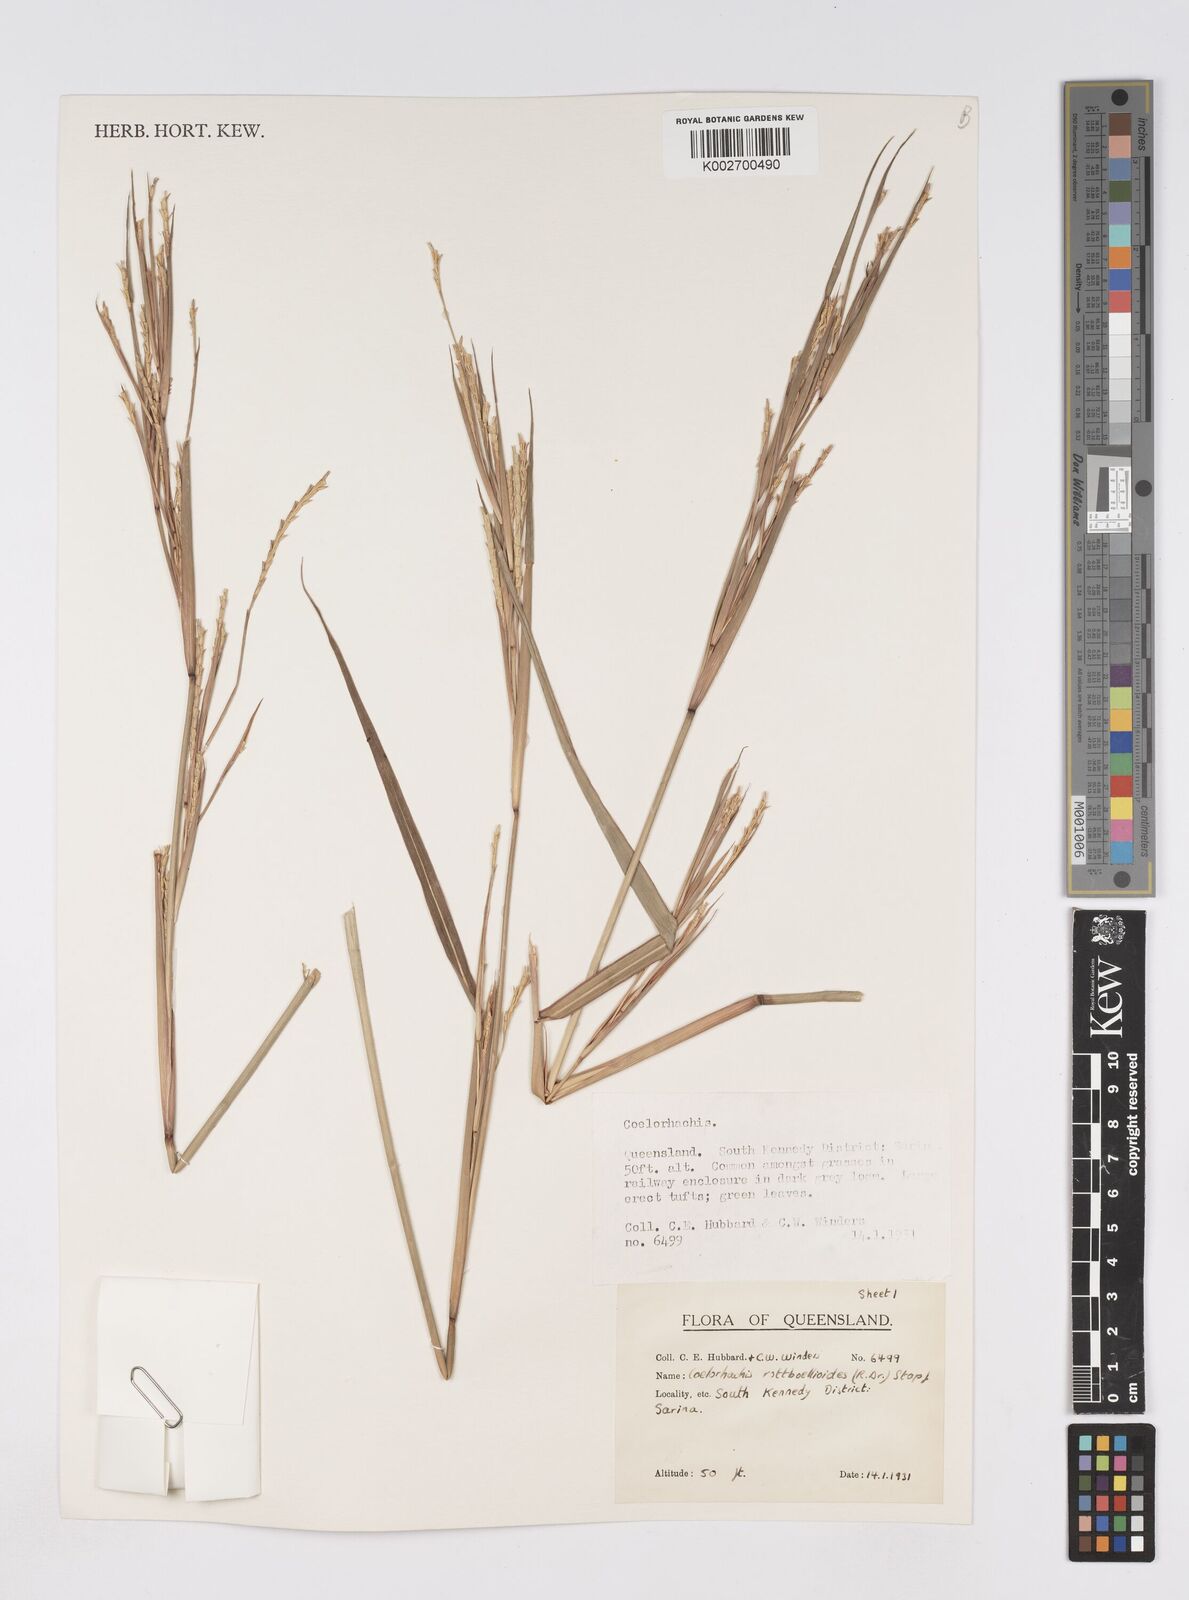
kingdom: Plantae
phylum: Tracheophyta
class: Liliopsida
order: Poales
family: Poaceae
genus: Rottboellia
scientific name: Rottboellia rottboellioides
